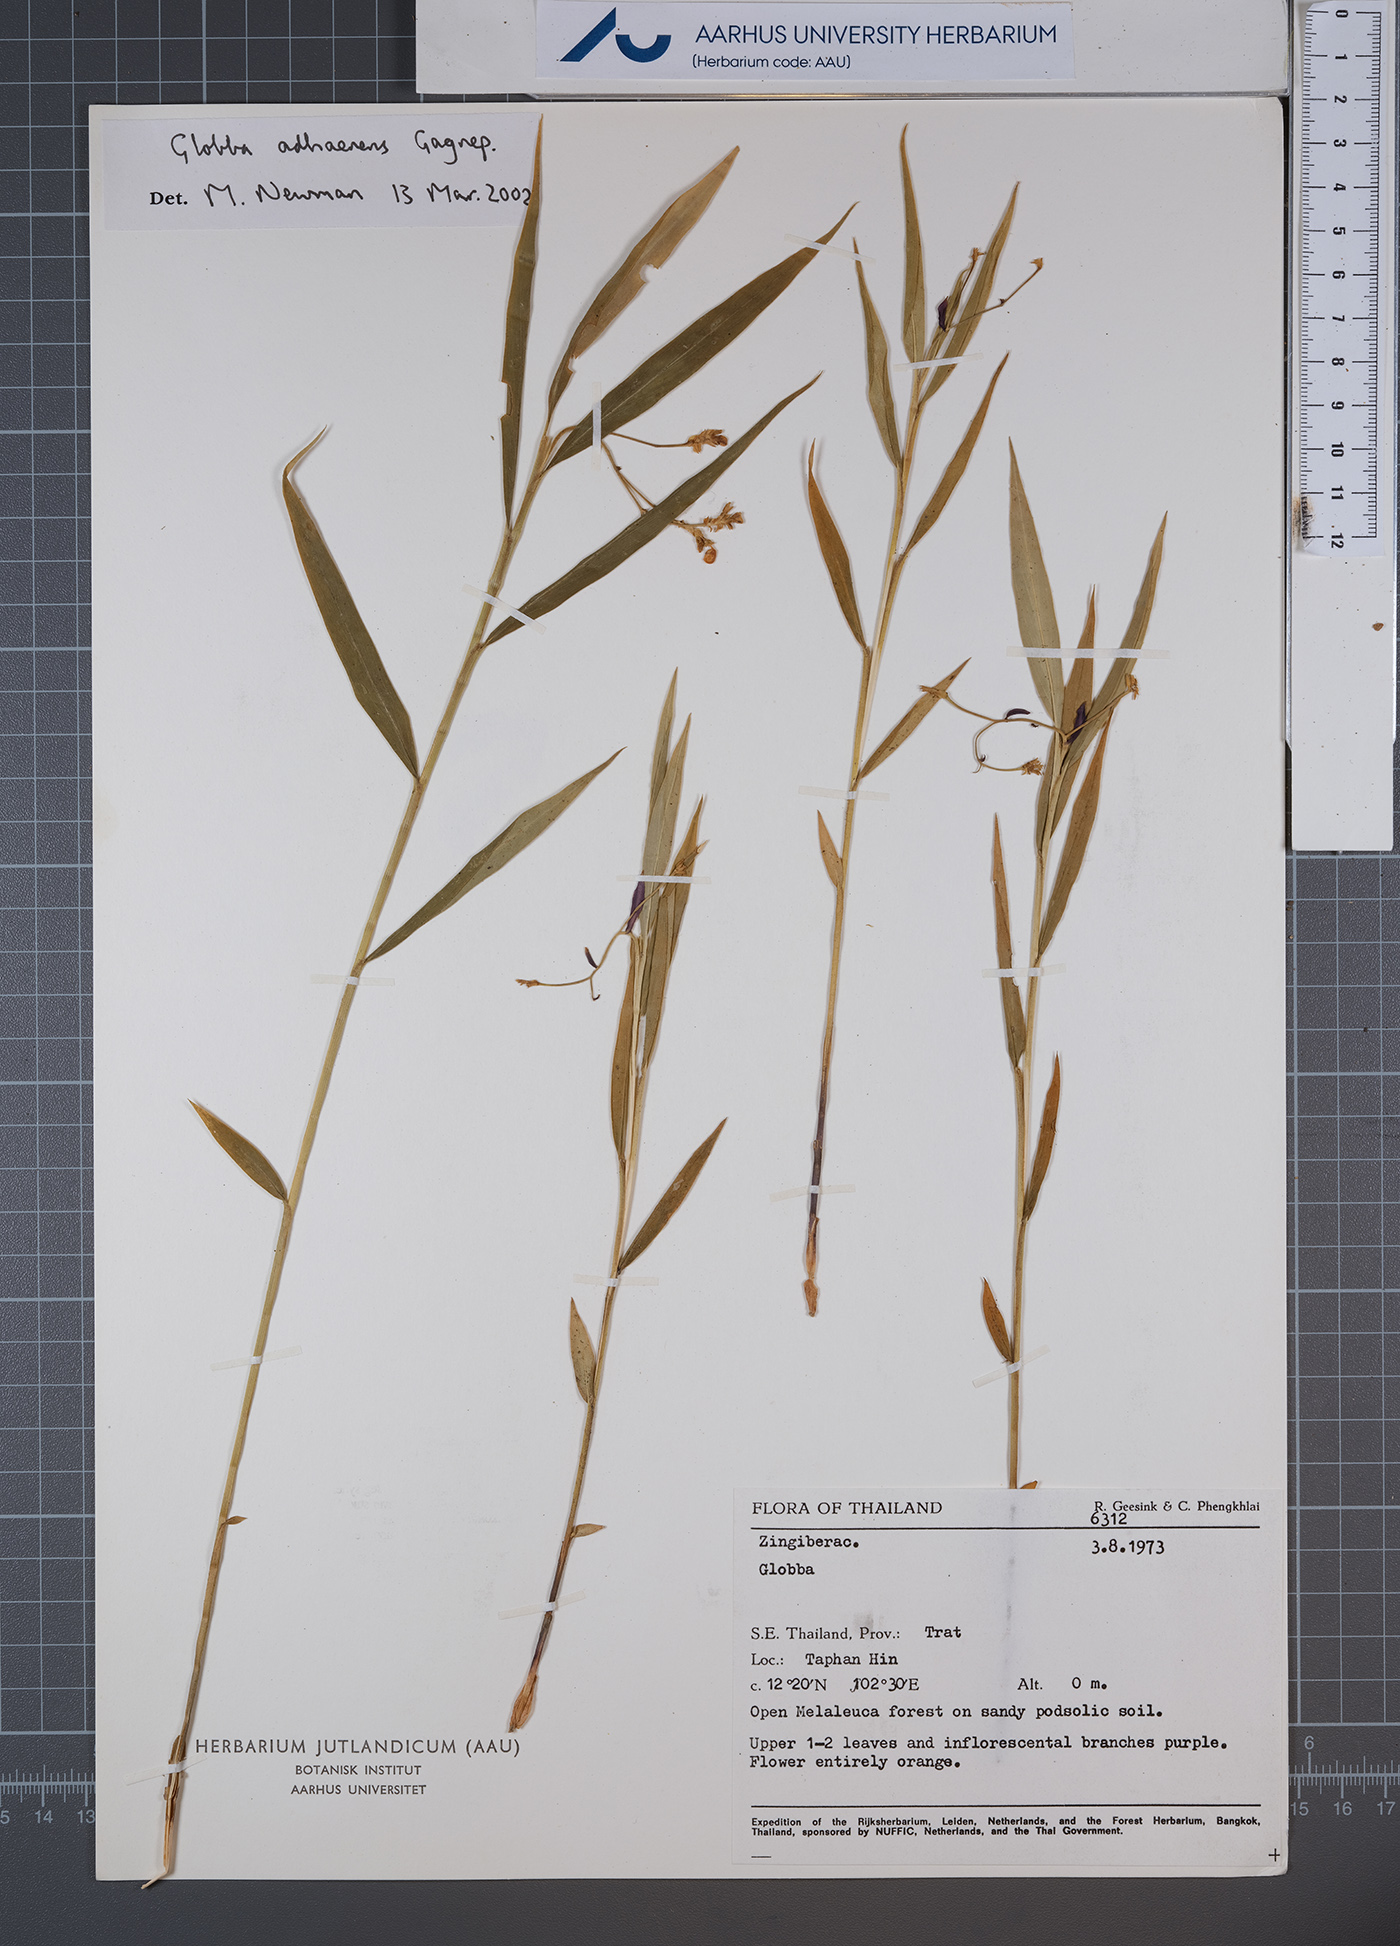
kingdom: Plantae
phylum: Tracheophyta
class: Liliopsida
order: Zingiberales
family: Zingiberaceae
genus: Globba
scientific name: Globba adhaerens
